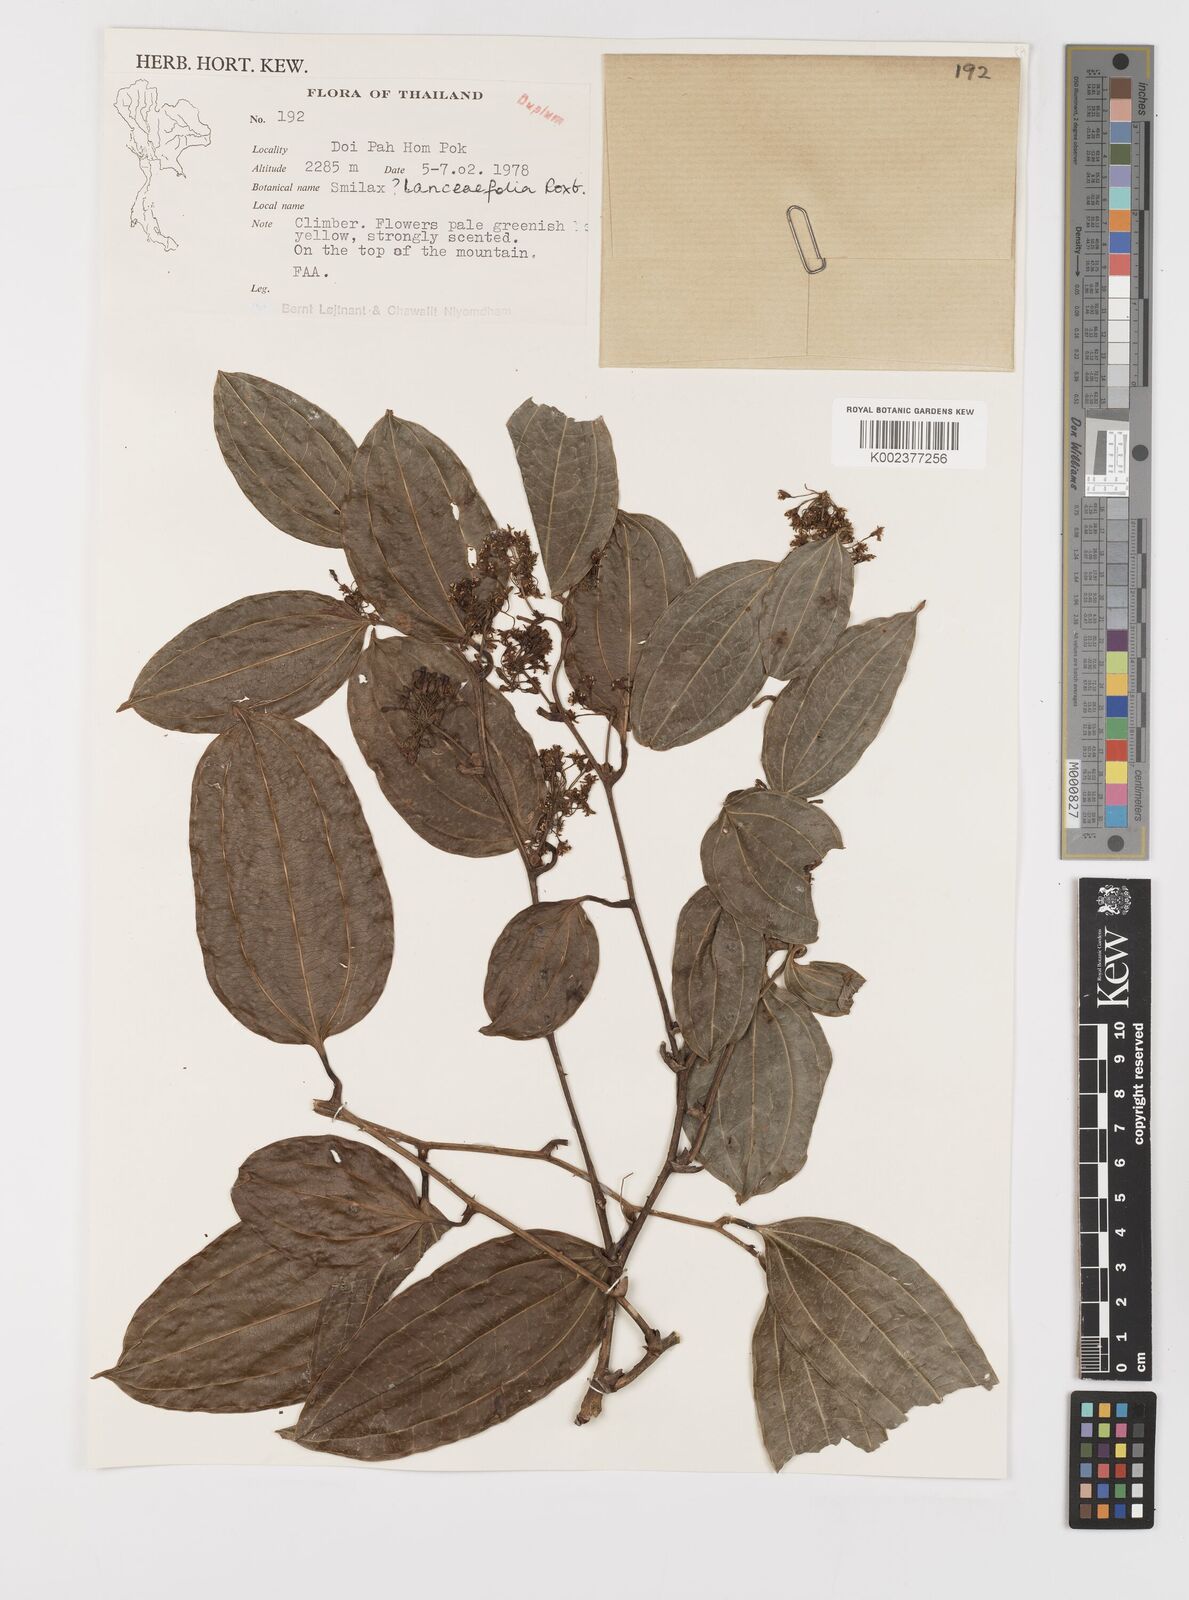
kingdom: Plantae
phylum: Tracheophyta
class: Liliopsida
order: Liliales
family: Smilacaceae
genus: Smilax
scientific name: Smilax lanceifolia
